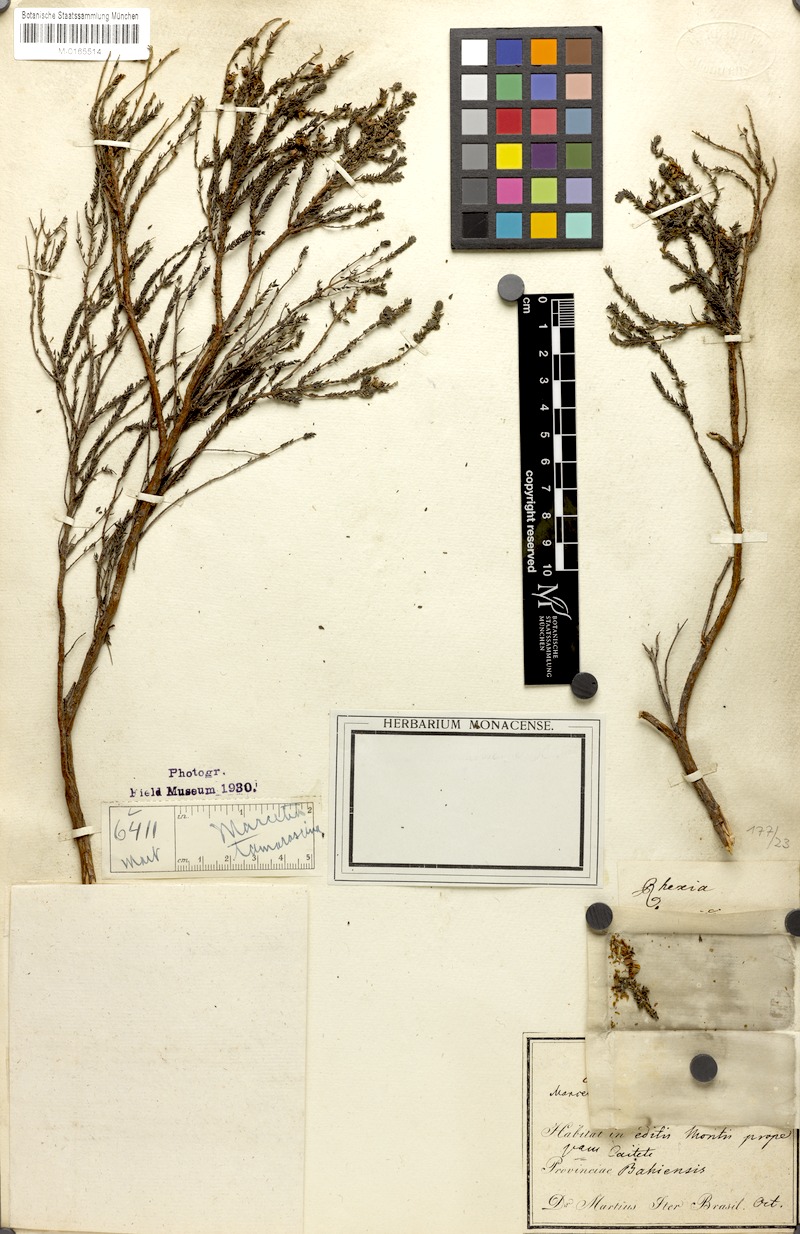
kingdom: Plantae
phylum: Tracheophyta
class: Magnoliopsida
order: Myrtales
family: Melastomataceae
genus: Marcetia
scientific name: Marcetia taxifolia
